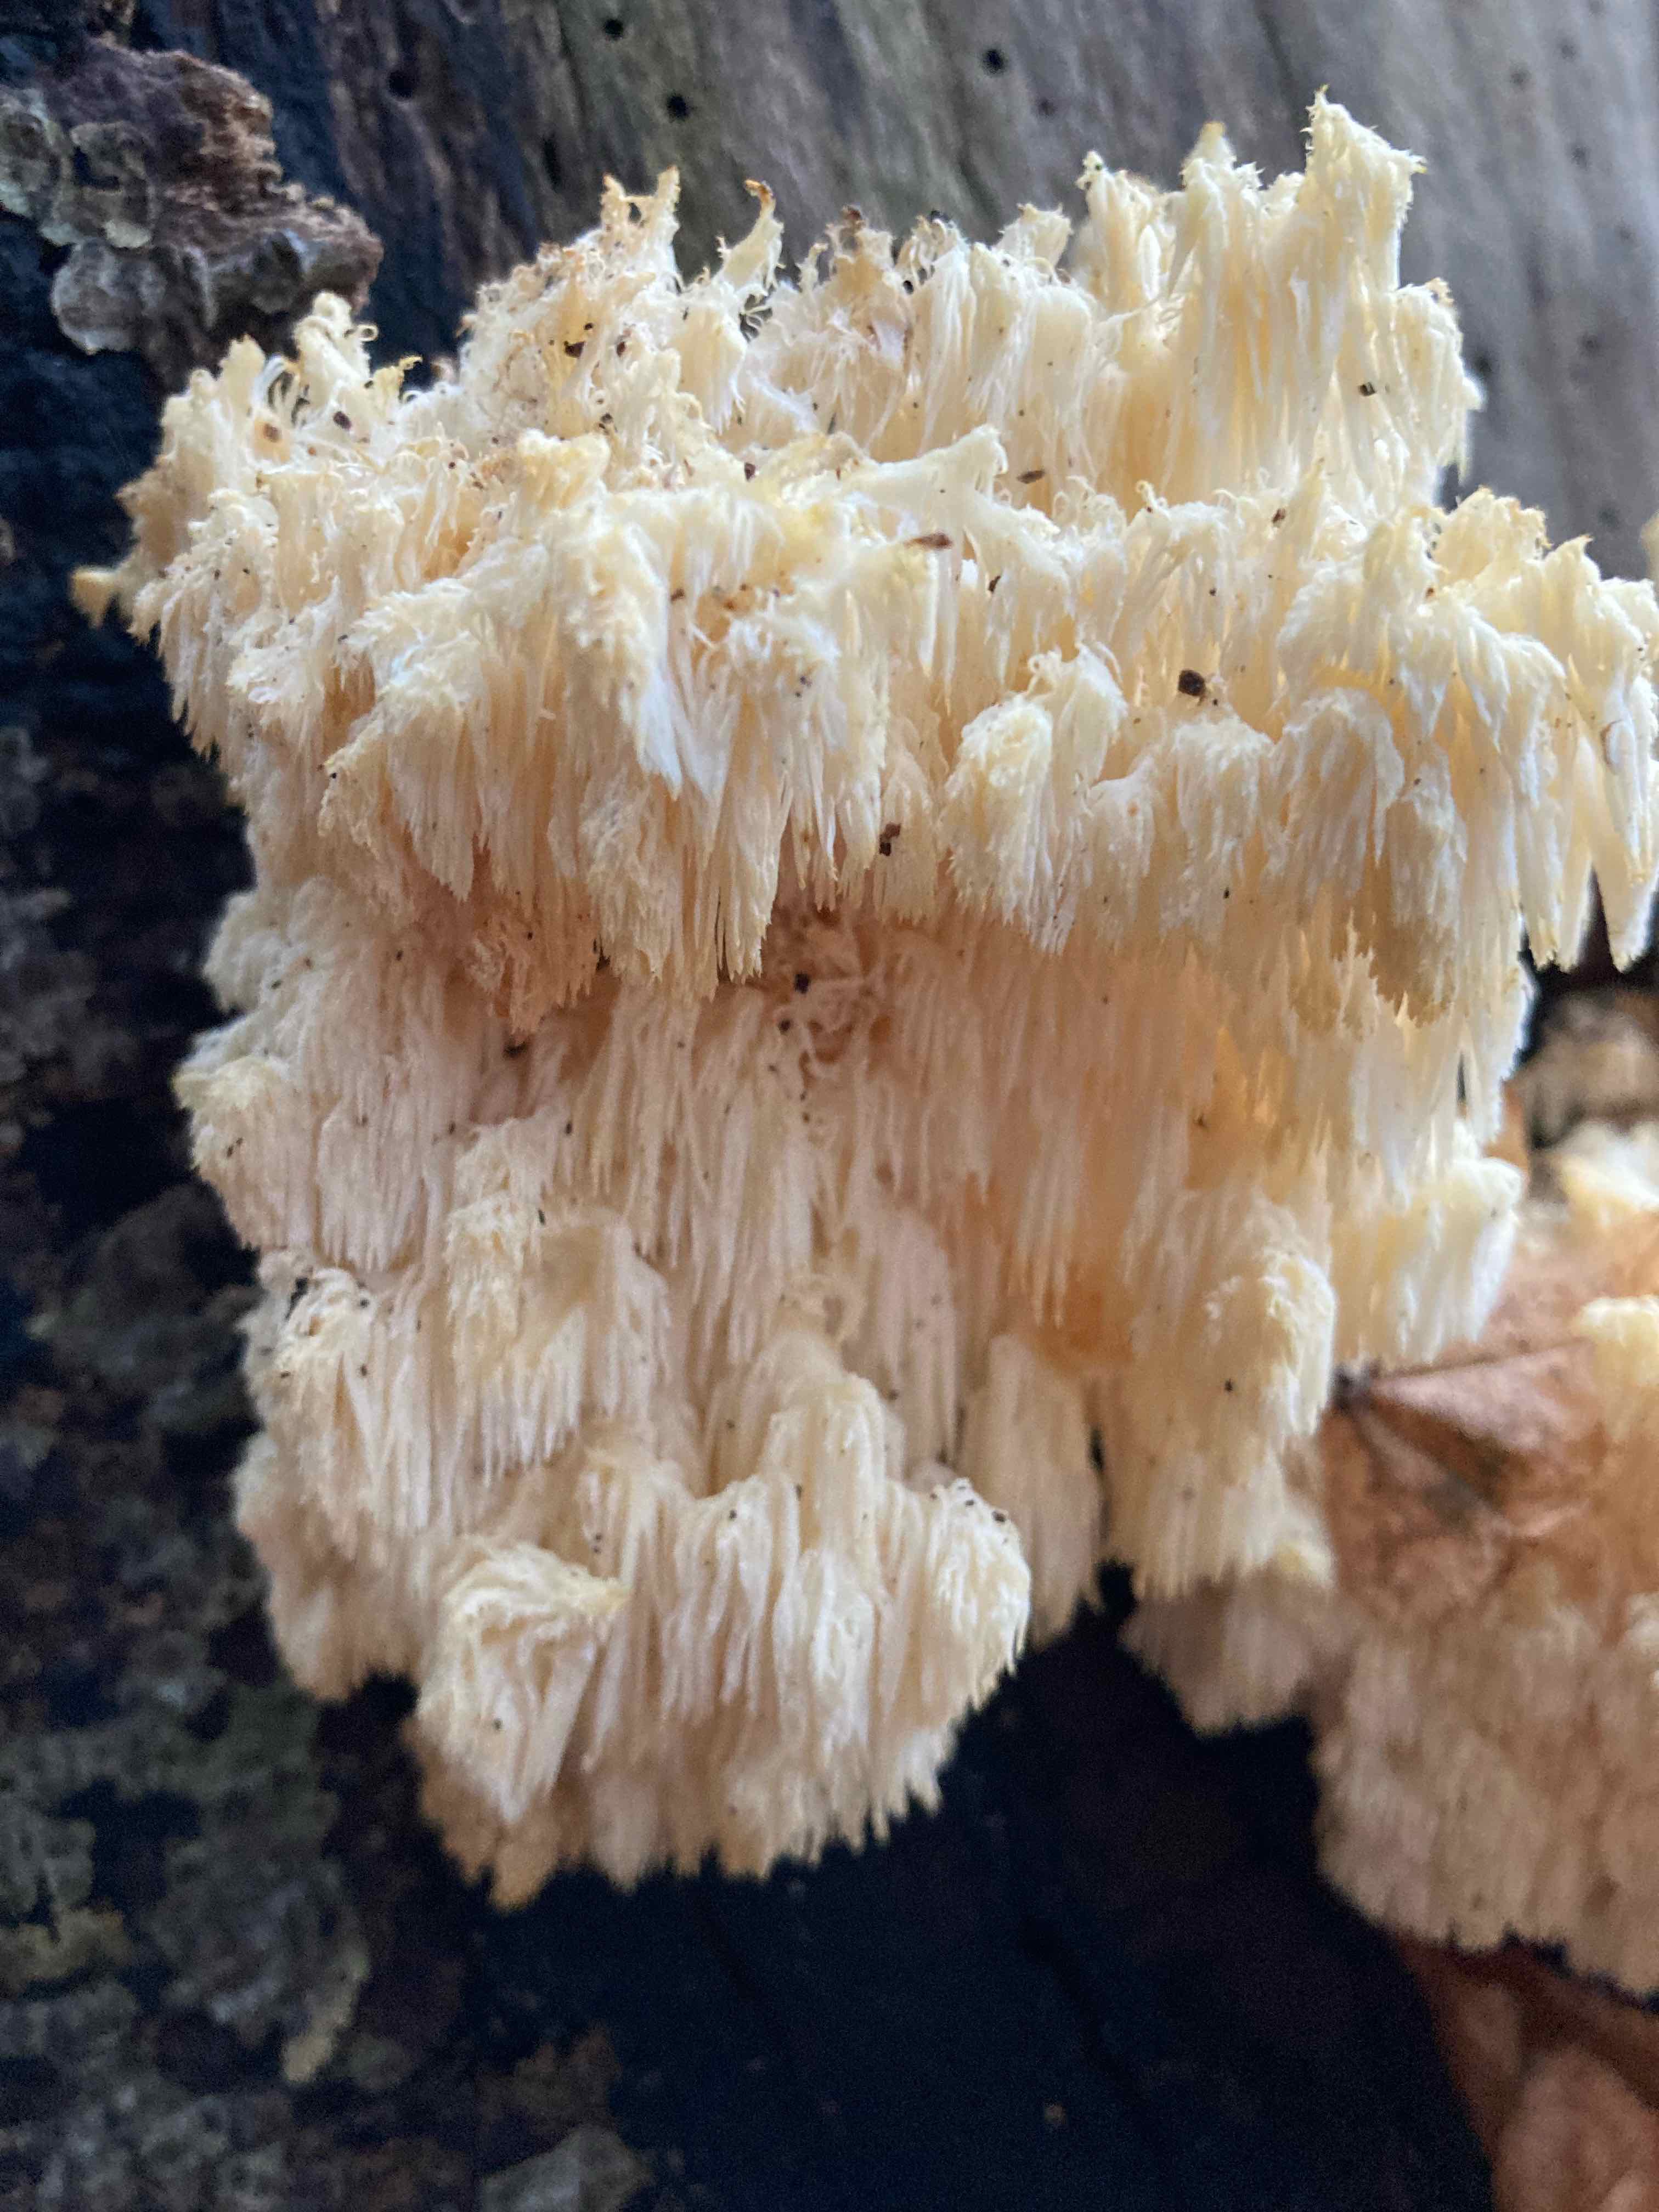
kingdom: Fungi
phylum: Basidiomycota
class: Agaricomycetes
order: Russulales
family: Hericiaceae
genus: Hericium
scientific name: Hericium coralloides
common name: koralpigsvamp
